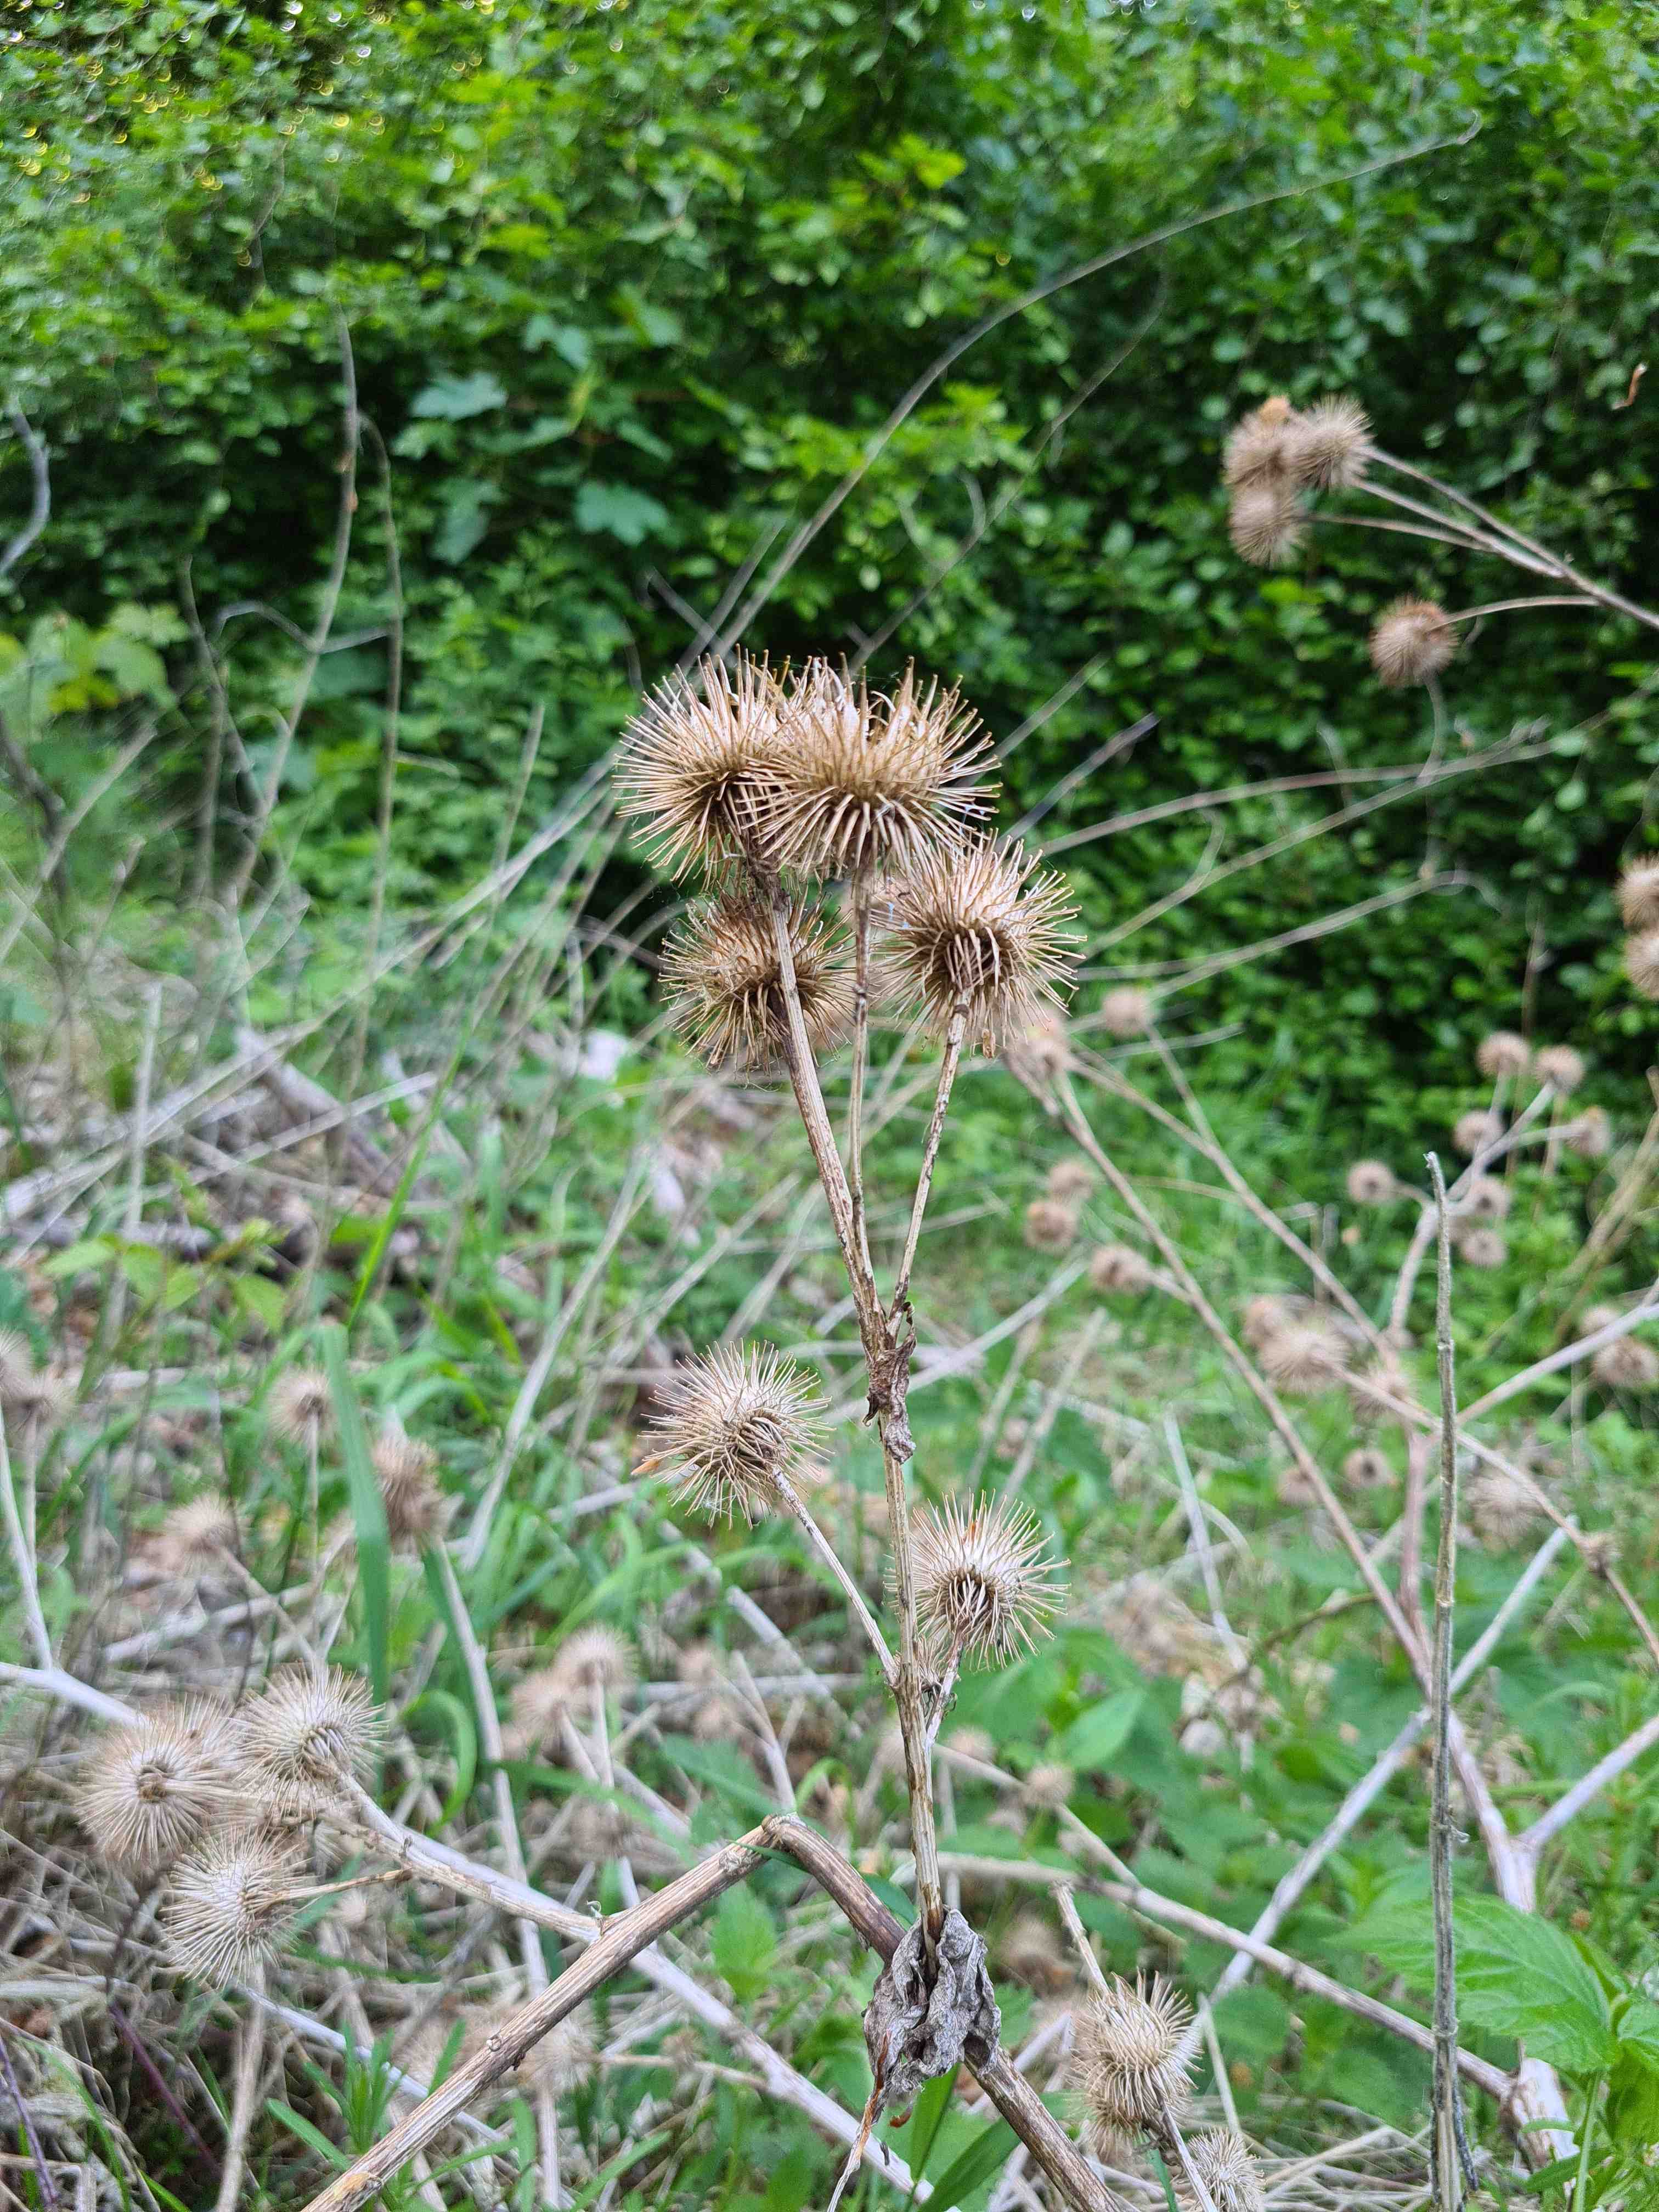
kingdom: Fungi
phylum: Ascomycota
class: Leotiomycetes
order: Helotiales
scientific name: Helotiales
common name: stilkskiveordenen
